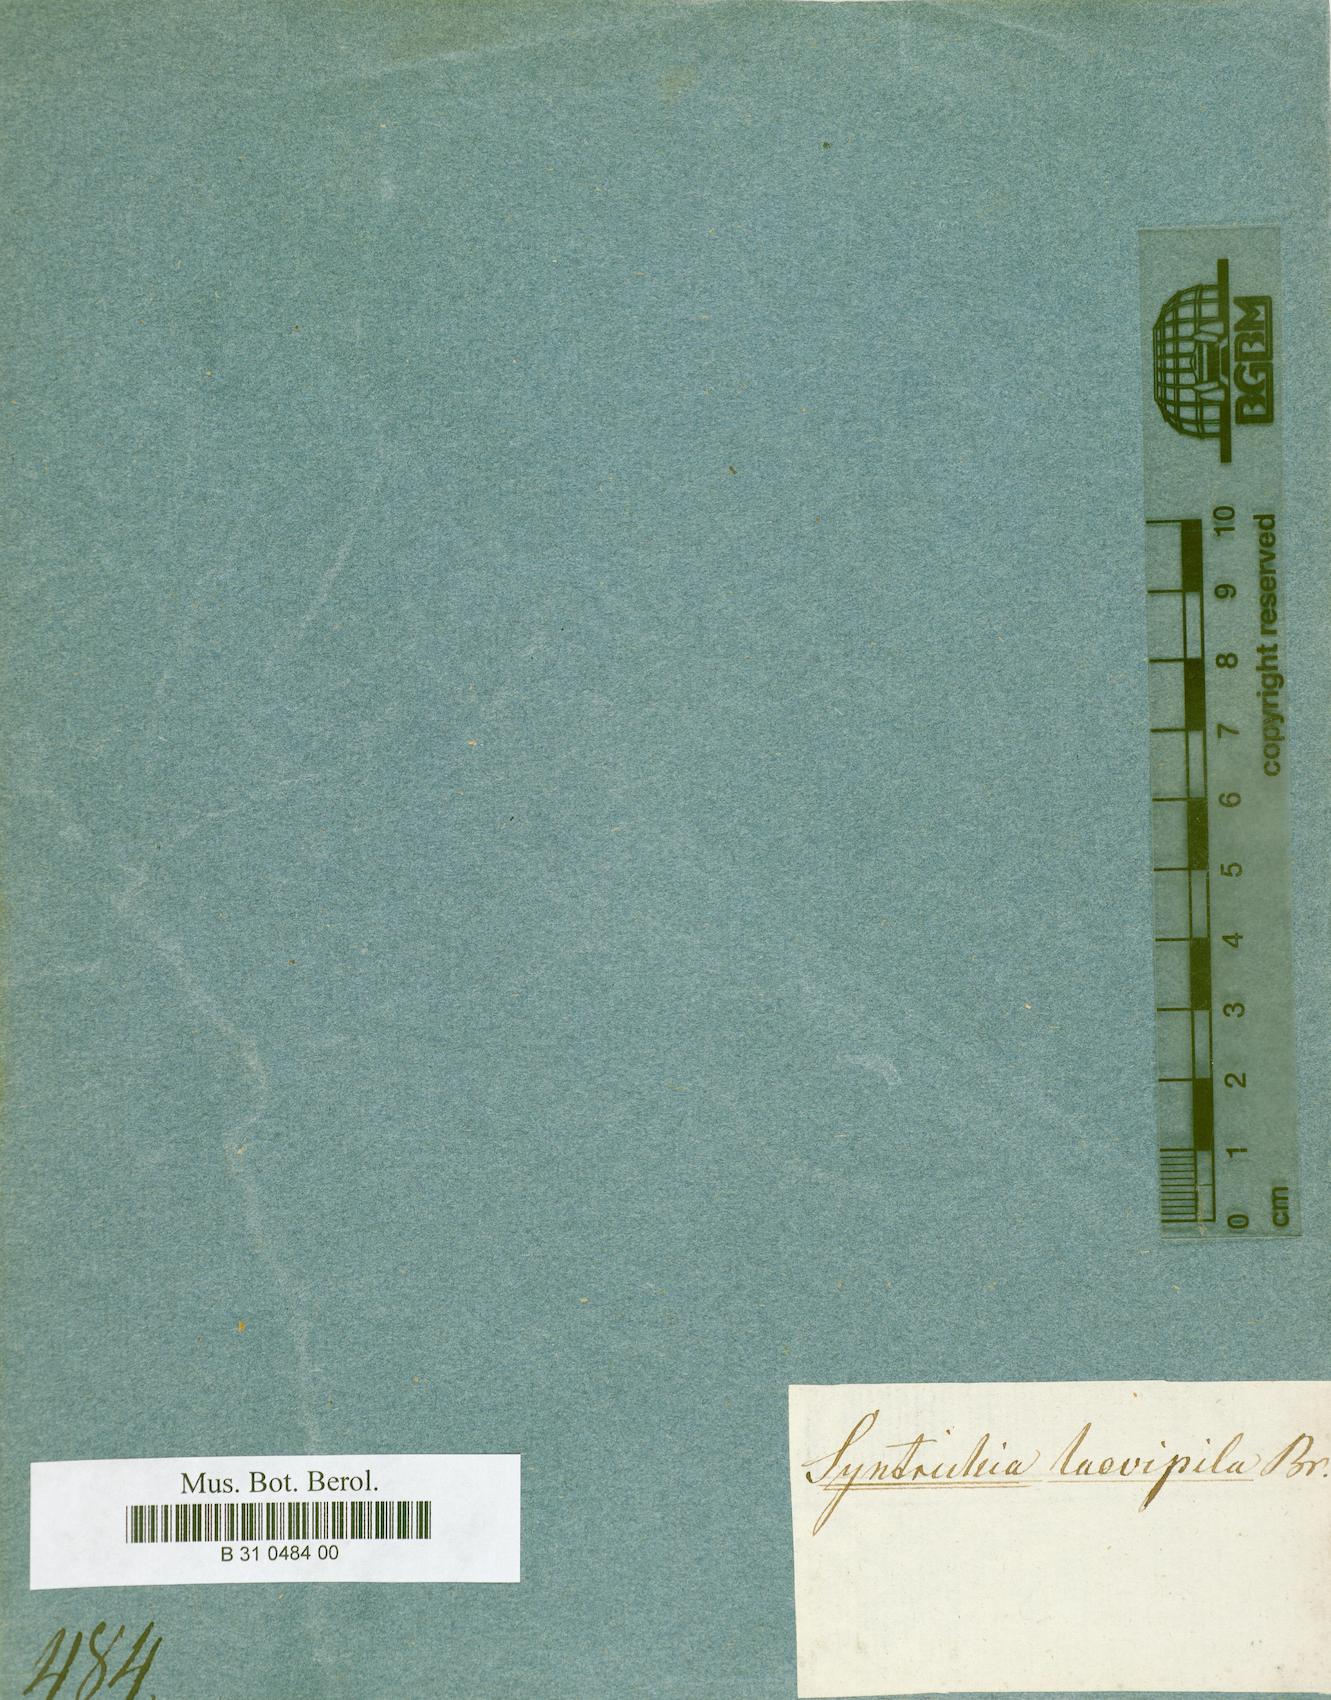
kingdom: Plantae
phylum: Bryophyta
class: Bryopsida
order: Pottiales
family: Pottiaceae
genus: Syntrichia
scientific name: Syntrichia laevipila
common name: Small hairy screw-moss
